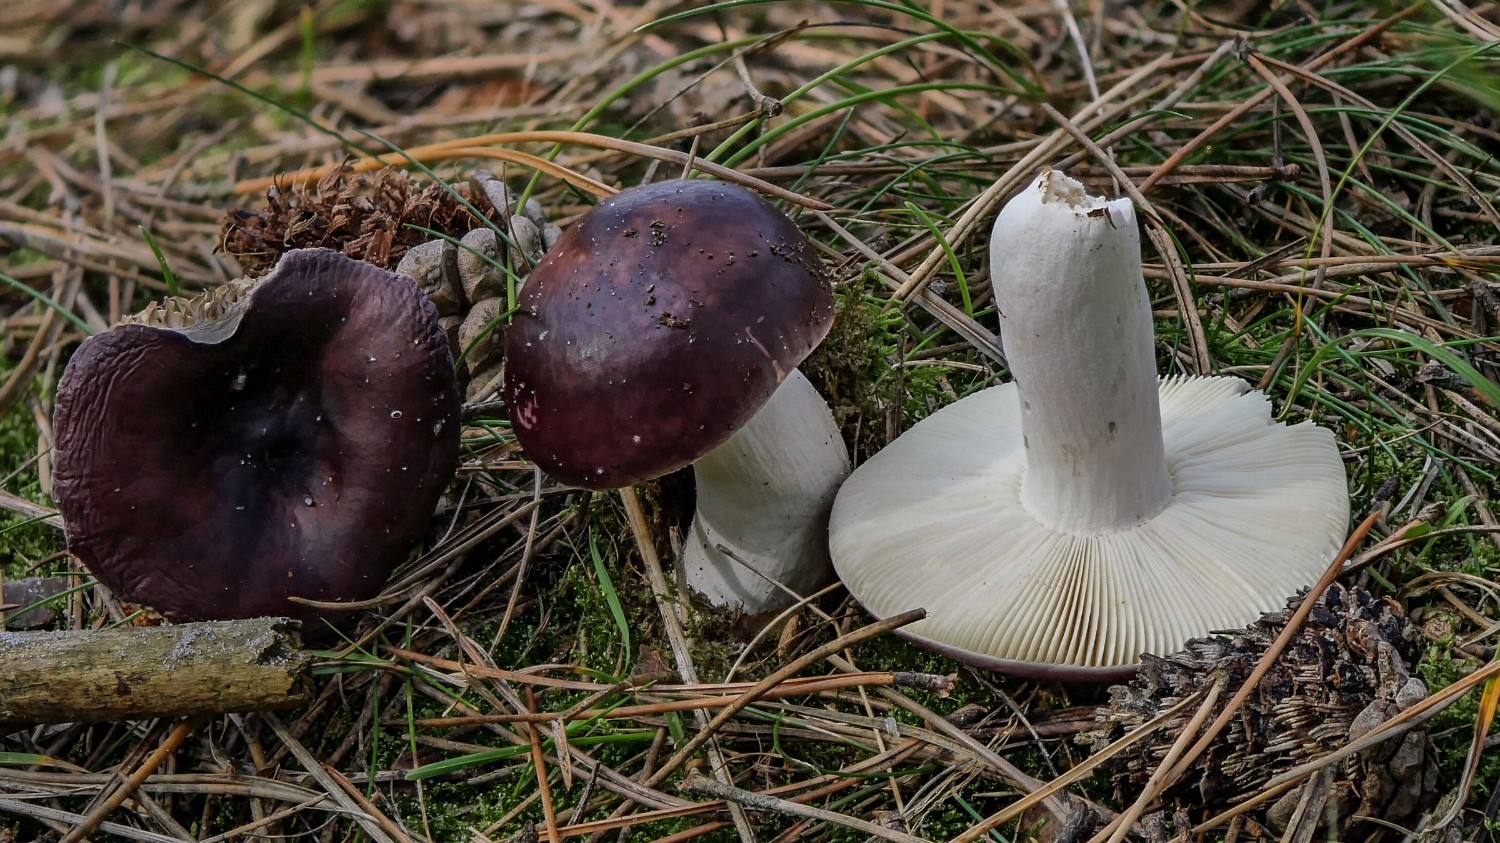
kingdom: Fungi
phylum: Basidiomycota
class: Agaricomycetes
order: Russulales
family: Russulaceae
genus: Russula
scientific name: Russula caerulea
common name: puklet skørhat
